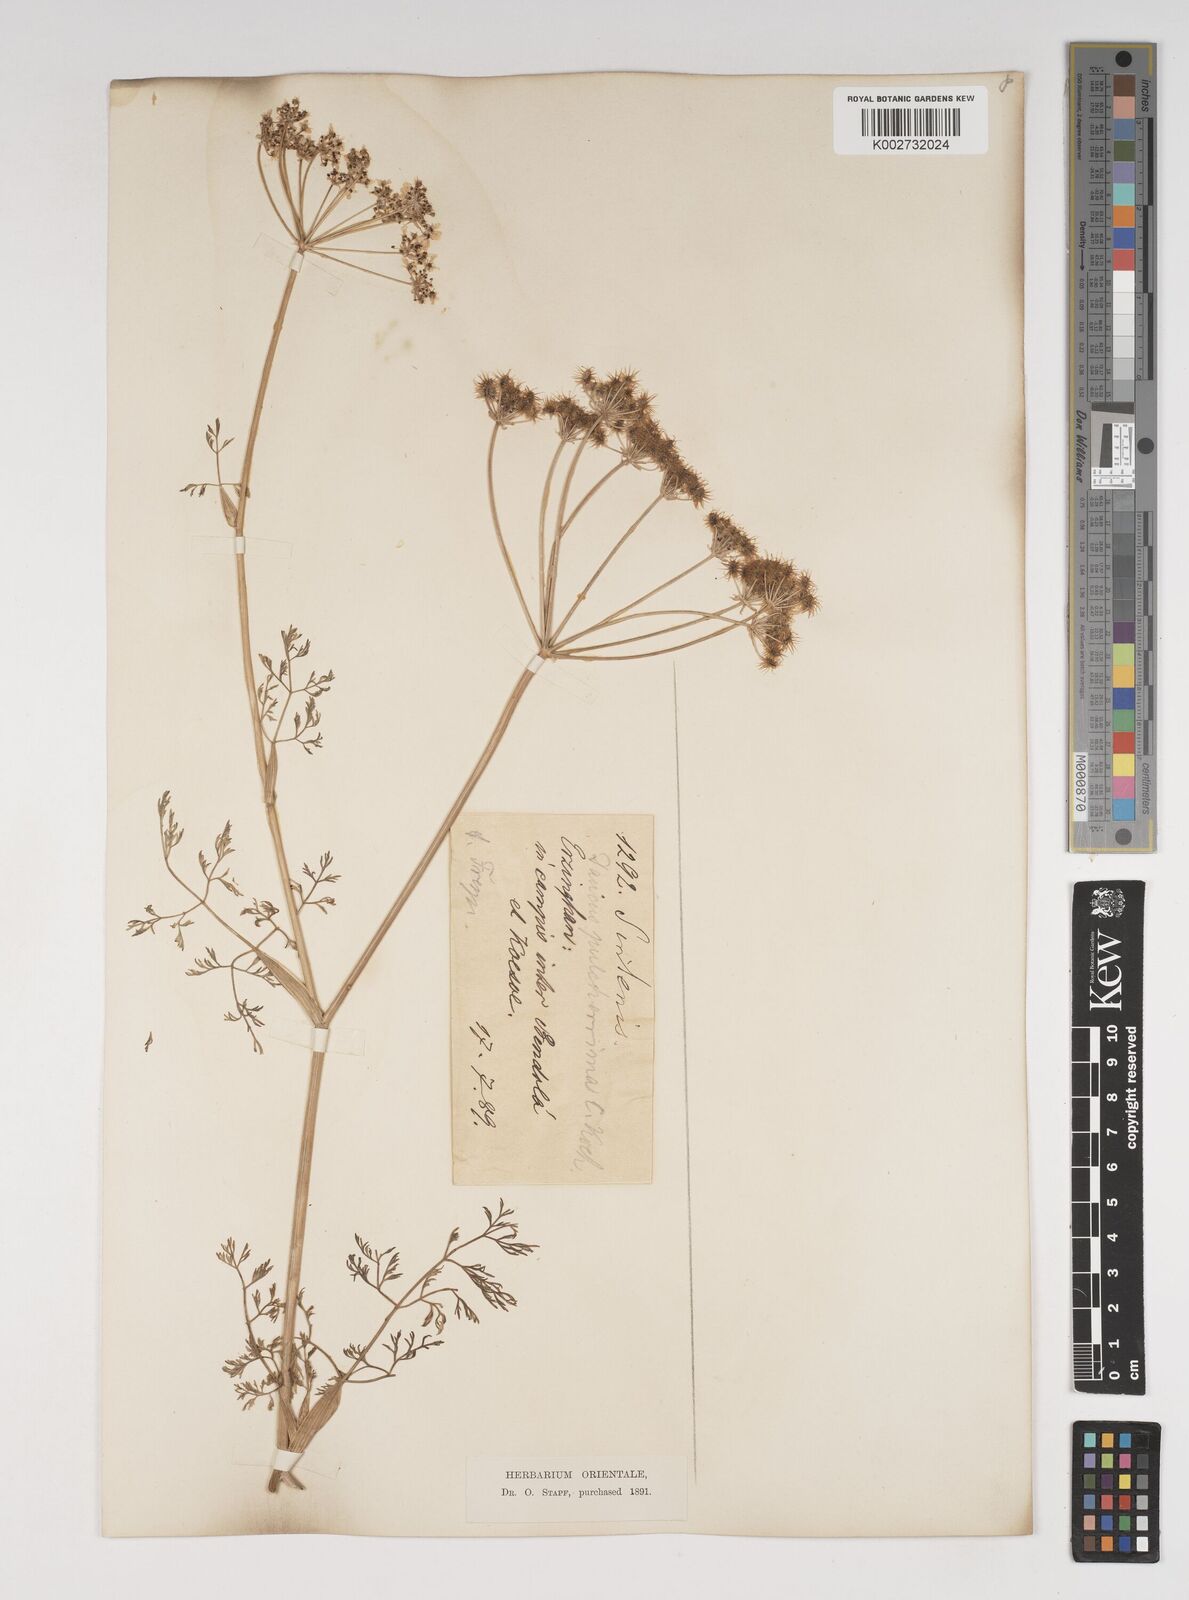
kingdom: Plantae
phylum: Tracheophyta
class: Magnoliopsida
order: Apiales
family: Apiaceae
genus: Astrodaucus
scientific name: Astrodaucus
